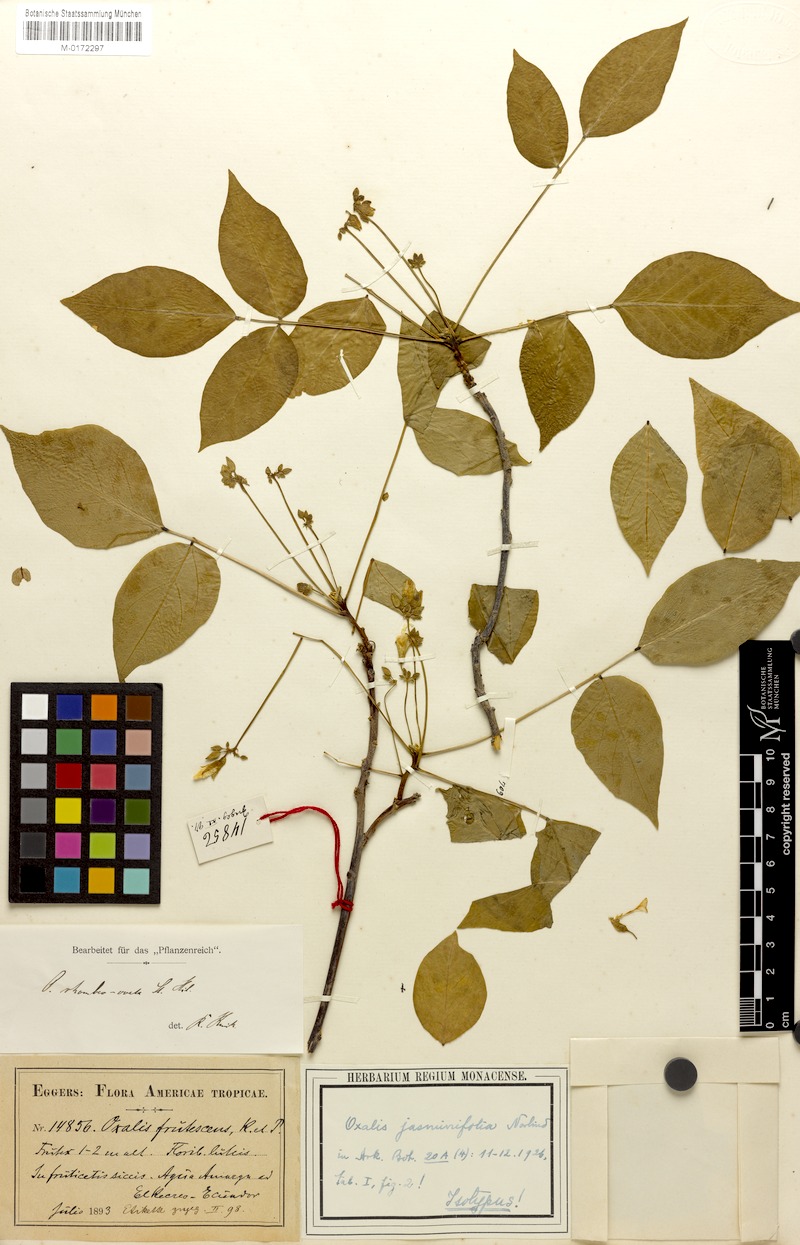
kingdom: Plantae
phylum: Tracheophyta
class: Magnoliopsida
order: Oxalidales
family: Oxalidaceae
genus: Oxalis
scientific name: Oxalis jasminifolia
